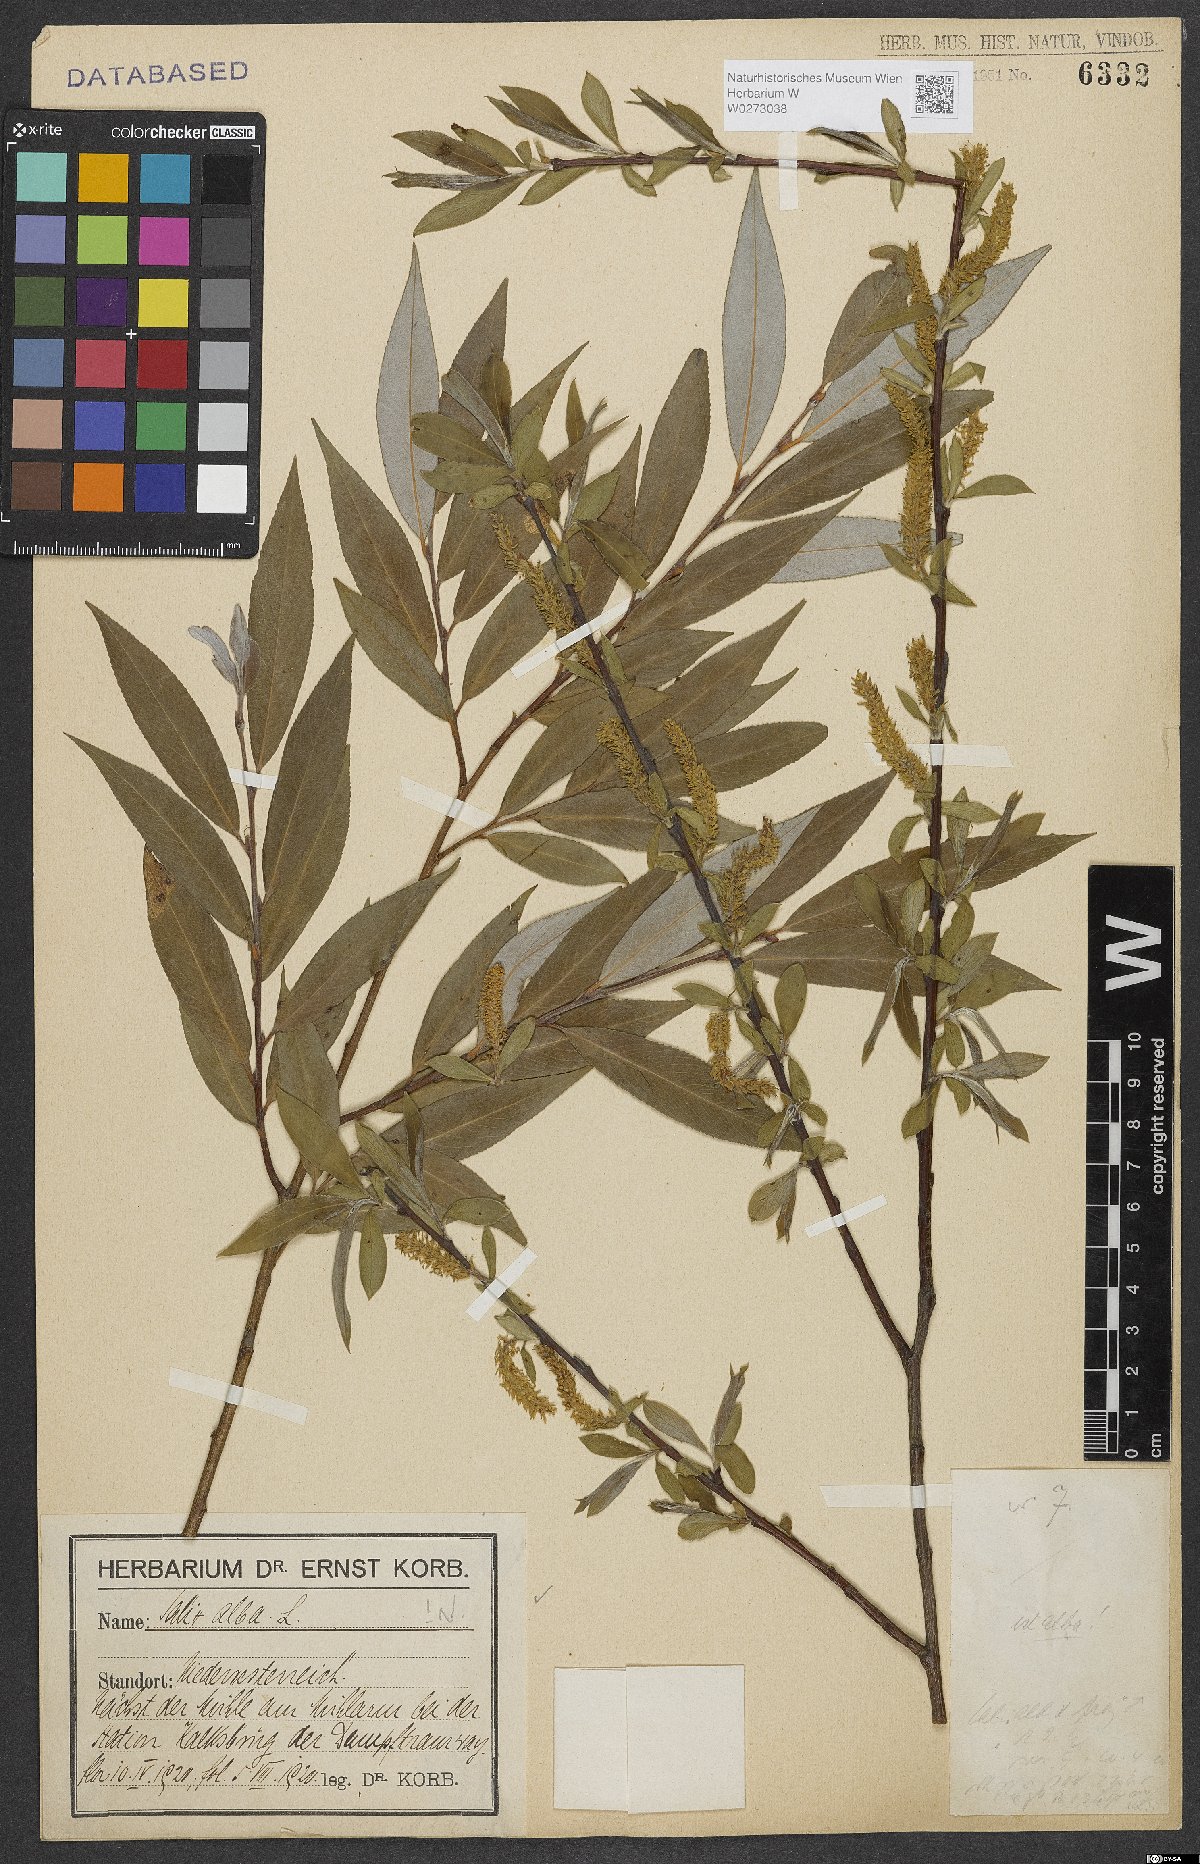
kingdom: Plantae
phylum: Tracheophyta
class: Magnoliopsida
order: Malpighiales
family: Salicaceae
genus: Salix
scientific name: Salix alba
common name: White willow
